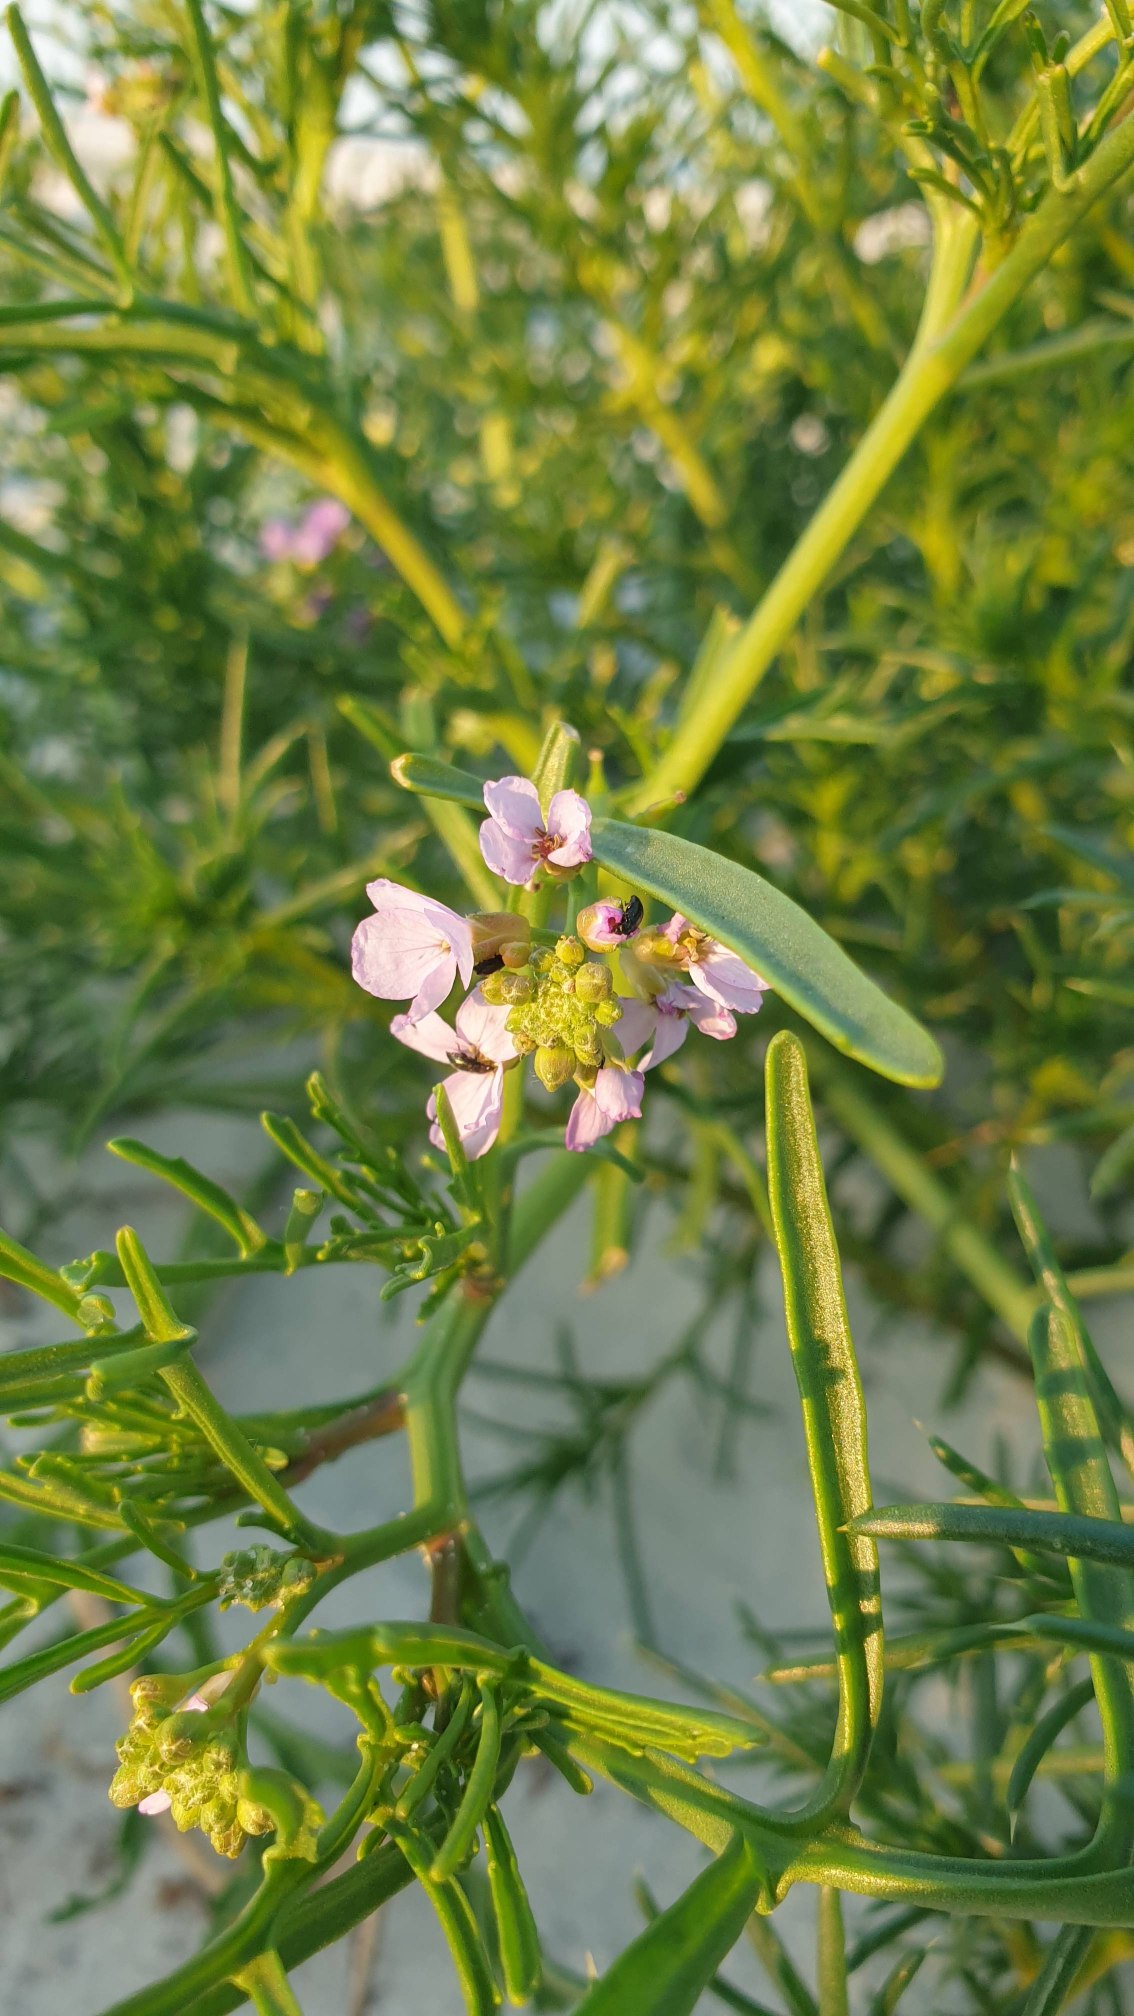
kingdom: Plantae
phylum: Tracheophyta
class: Magnoliopsida
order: Brassicales
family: Brassicaceae
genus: Cakile
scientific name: Cakile maritima
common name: Strandsennep
